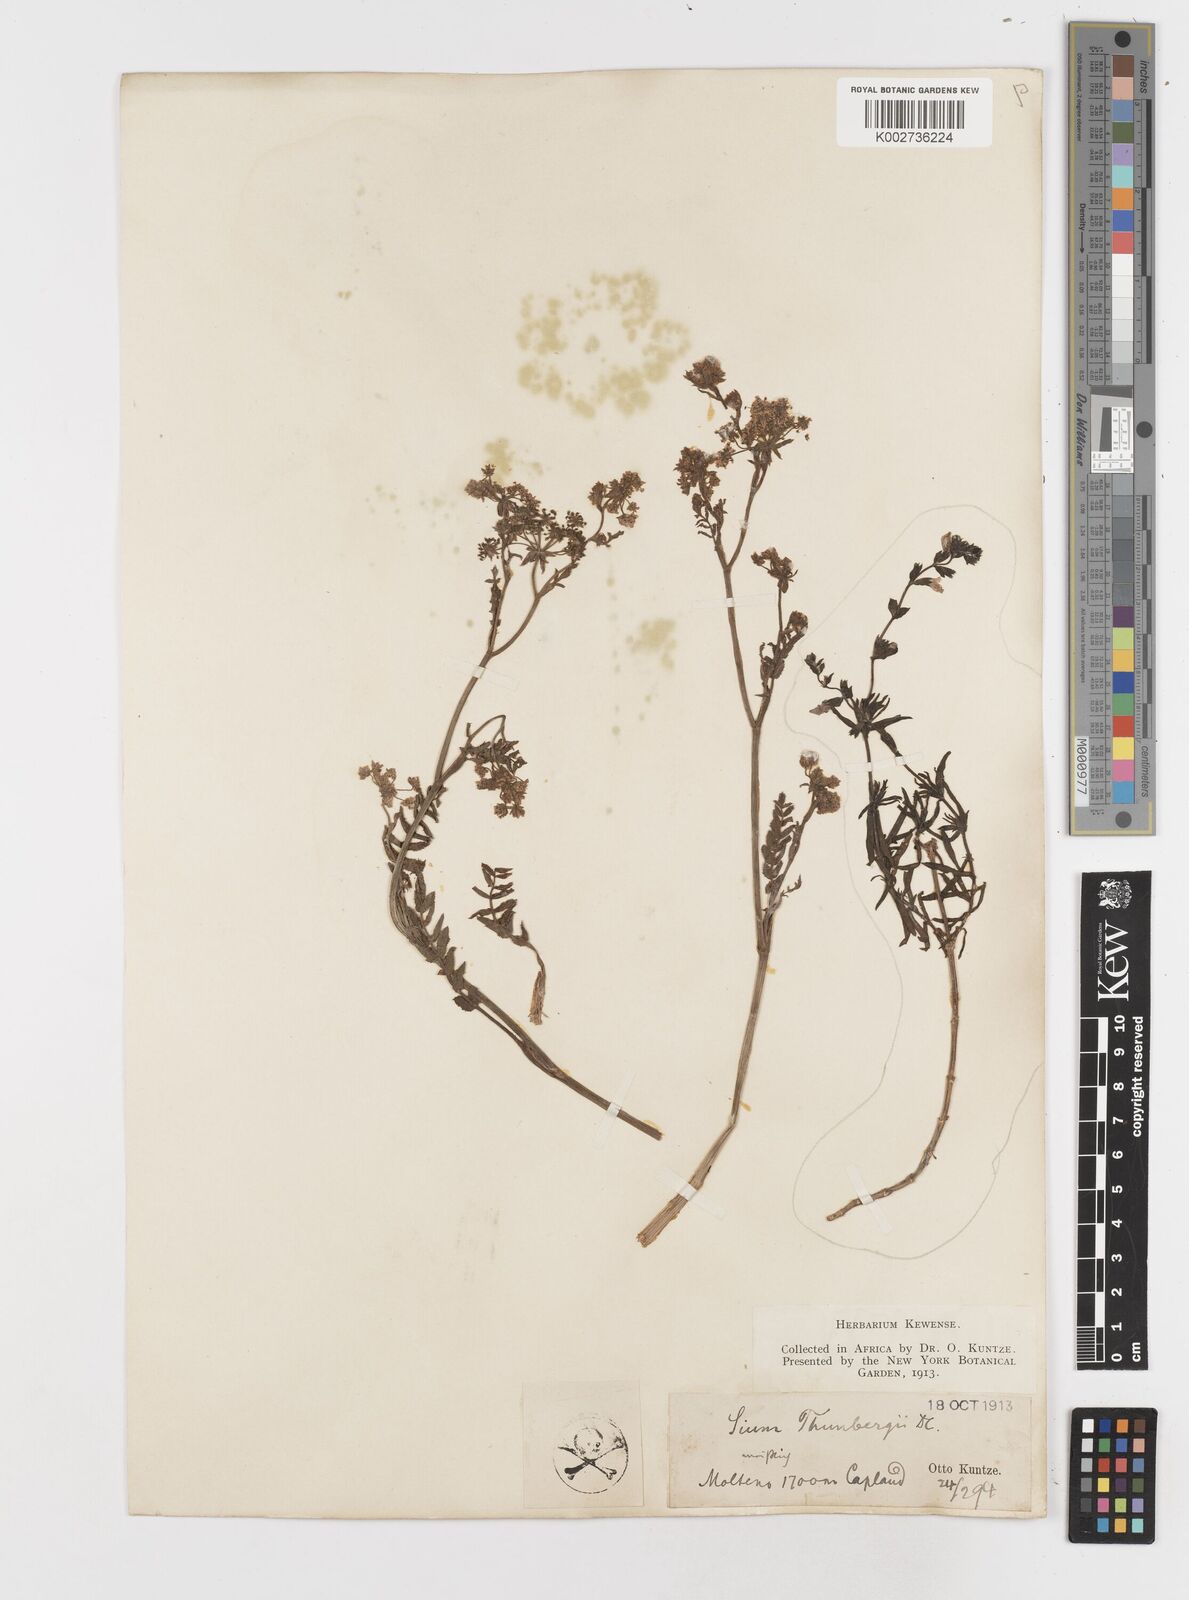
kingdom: Plantae
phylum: Tracheophyta
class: Magnoliopsida
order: Apiales
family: Apiaceae
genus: Berula
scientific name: Berula erecta
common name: Lesser water-parsnip
